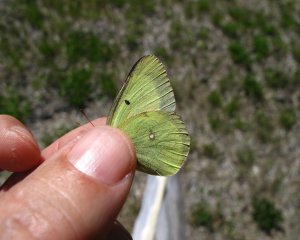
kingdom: Animalia
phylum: Arthropoda
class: Insecta
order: Lepidoptera
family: Pieridae
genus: Colias
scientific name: Colias philodice
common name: Clouded Sulphur
